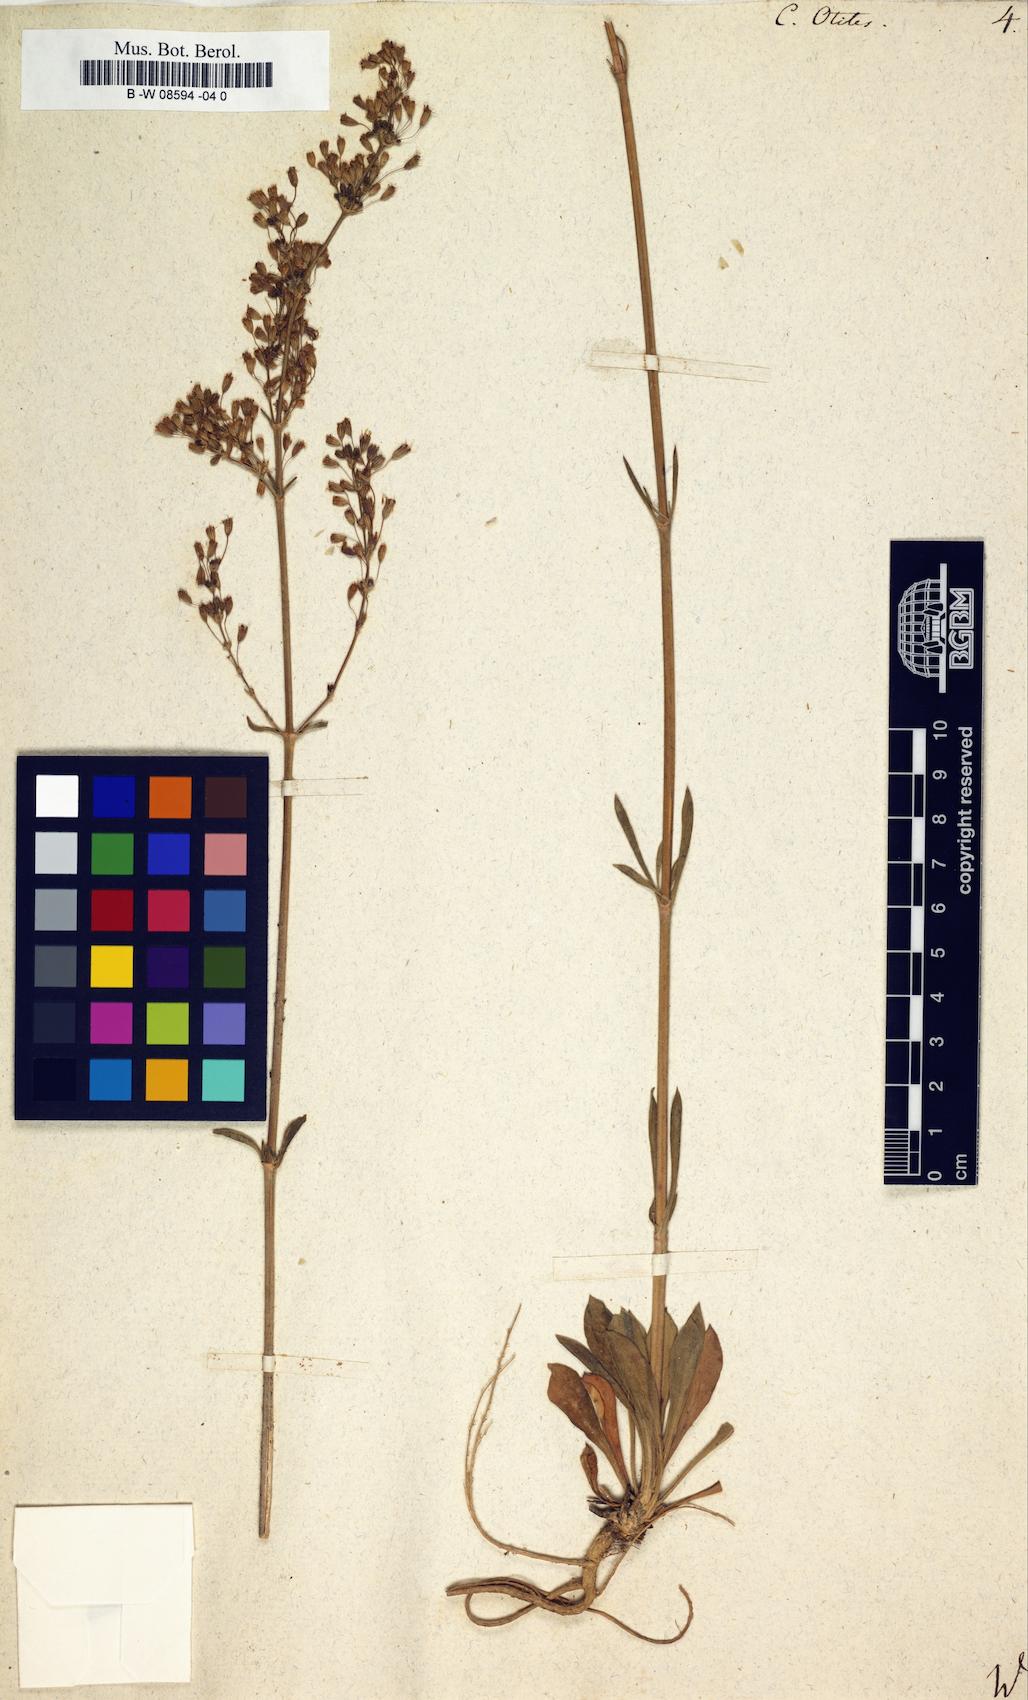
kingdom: Plantae
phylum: Tracheophyta
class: Magnoliopsida
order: Caryophyllales
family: Caryophyllaceae
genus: Silene
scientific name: Silene otites
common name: Spanish catchfly
